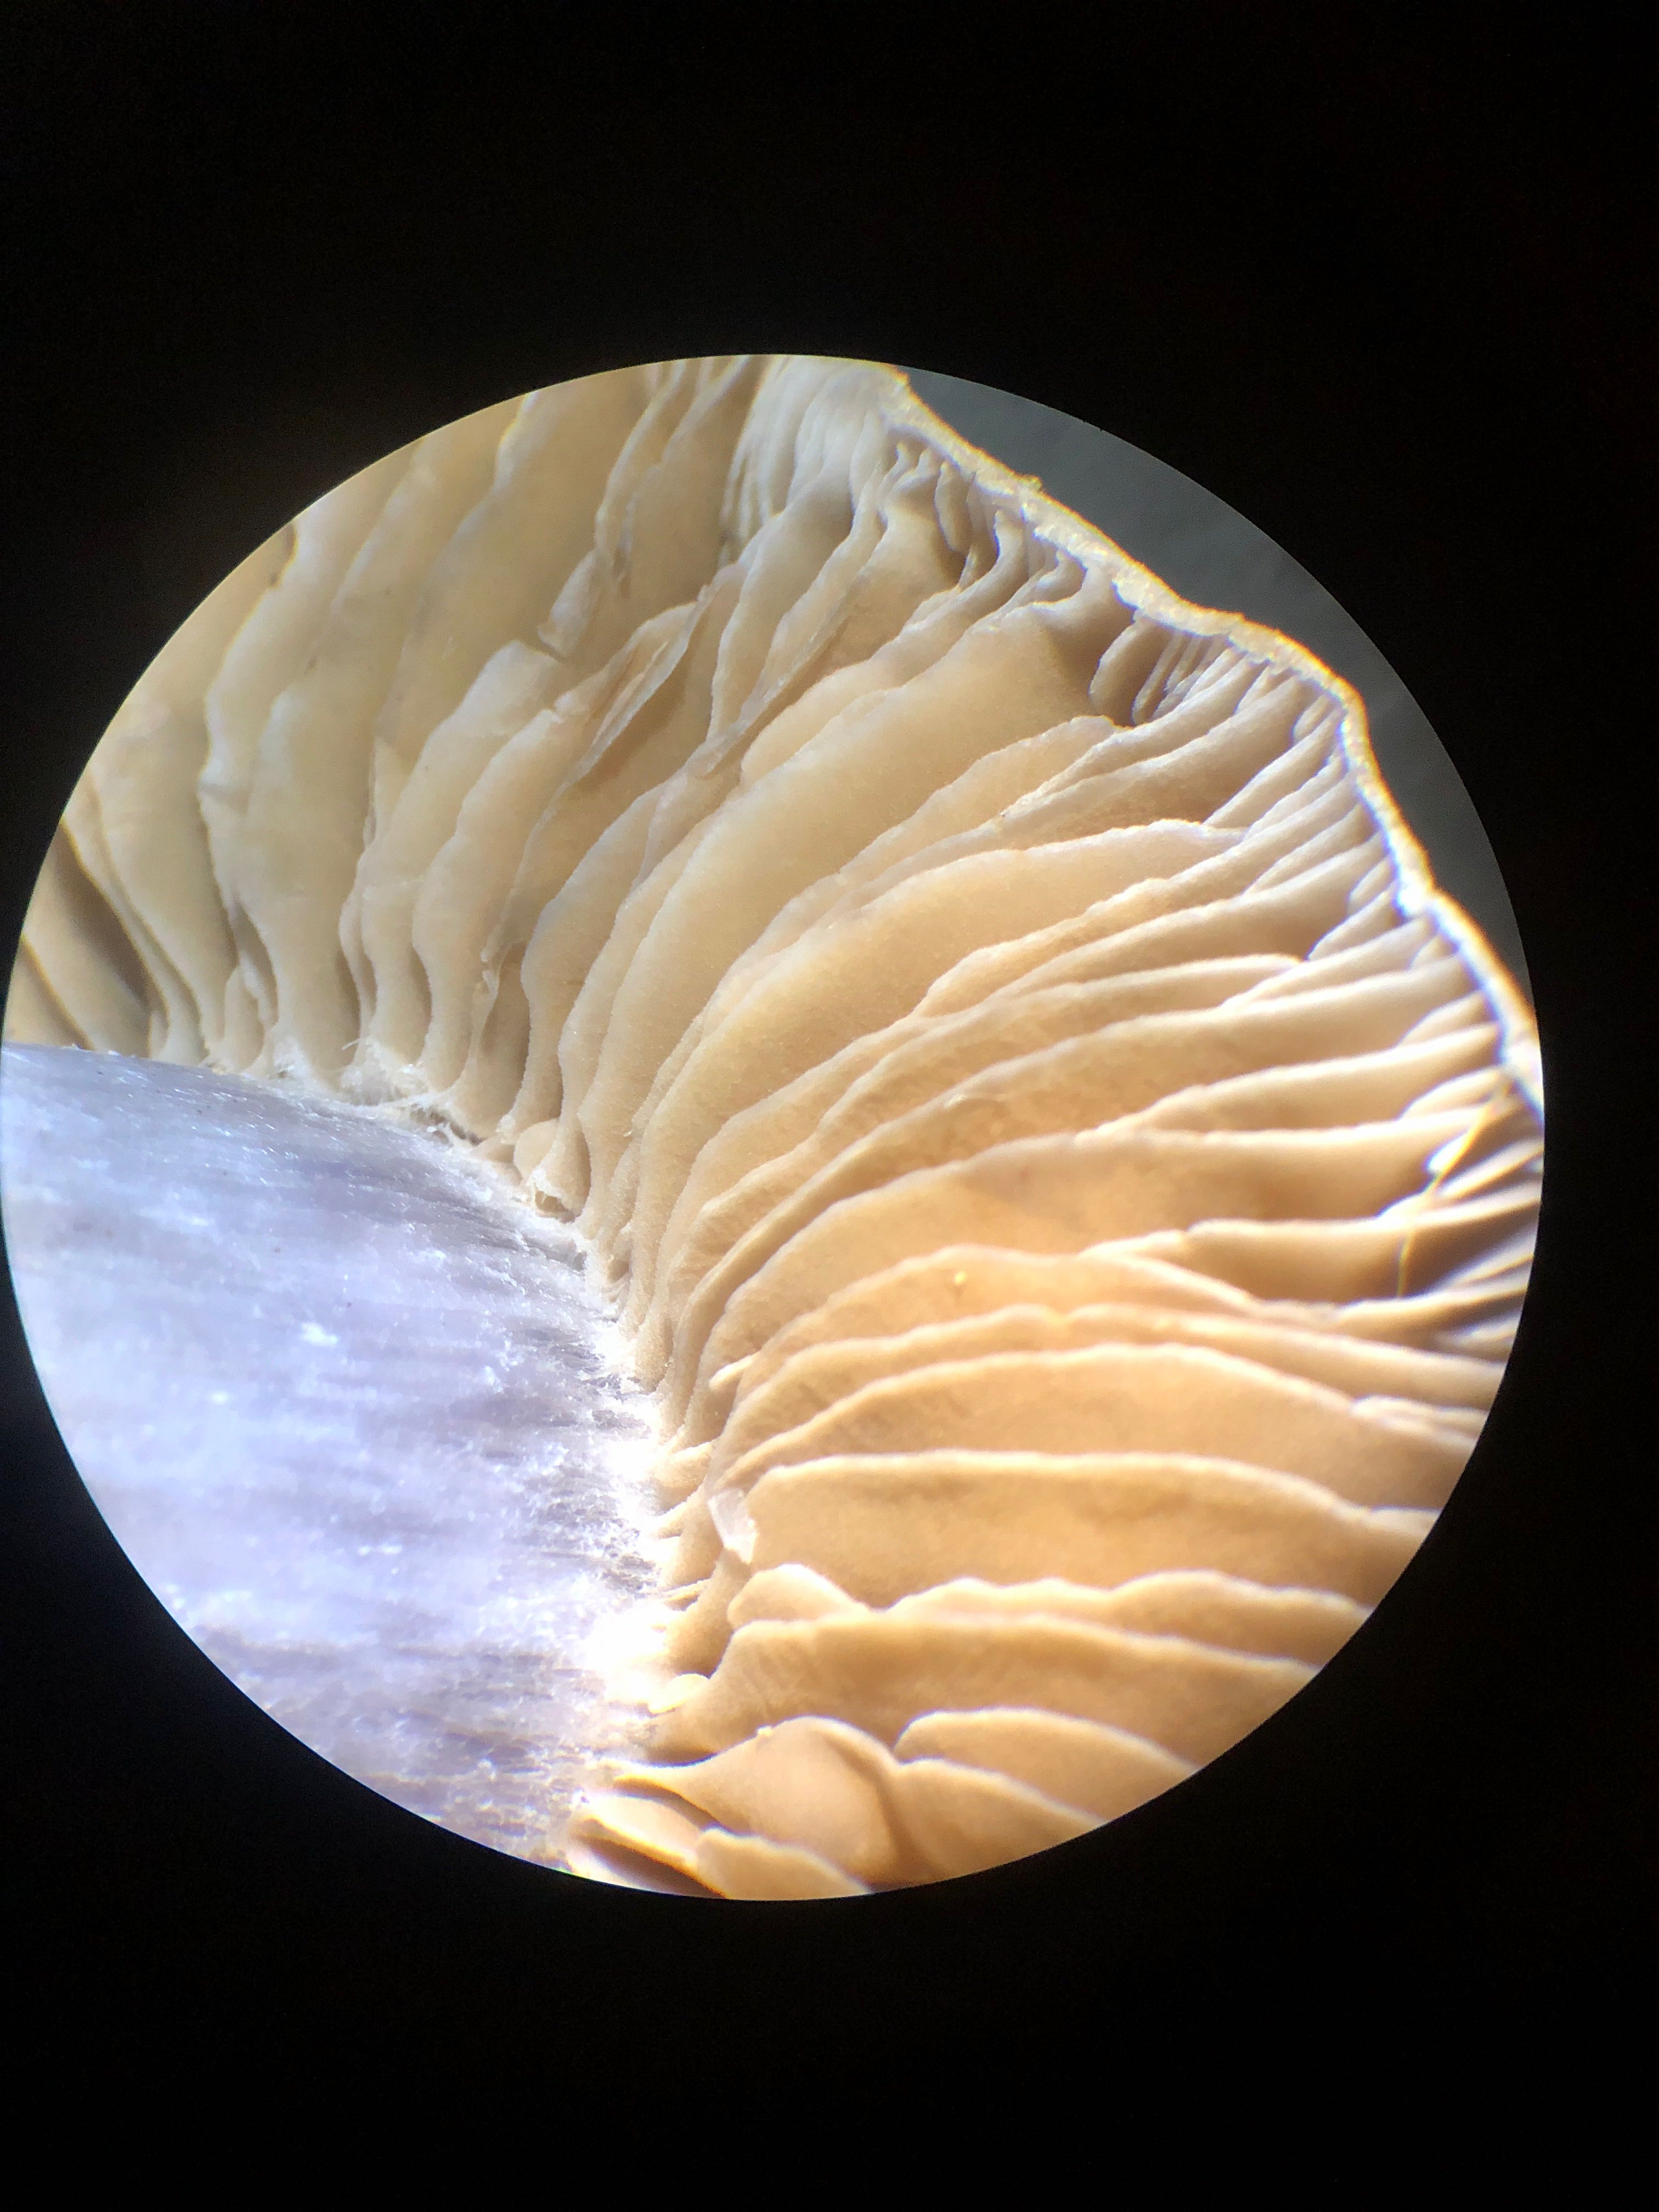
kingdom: Fungi
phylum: Basidiomycota
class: Agaricomycetes
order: Agaricales
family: Cortinariaceae
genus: Cortinarius
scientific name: Cortinarius alboviolaceus
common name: lysviolet slørhat
